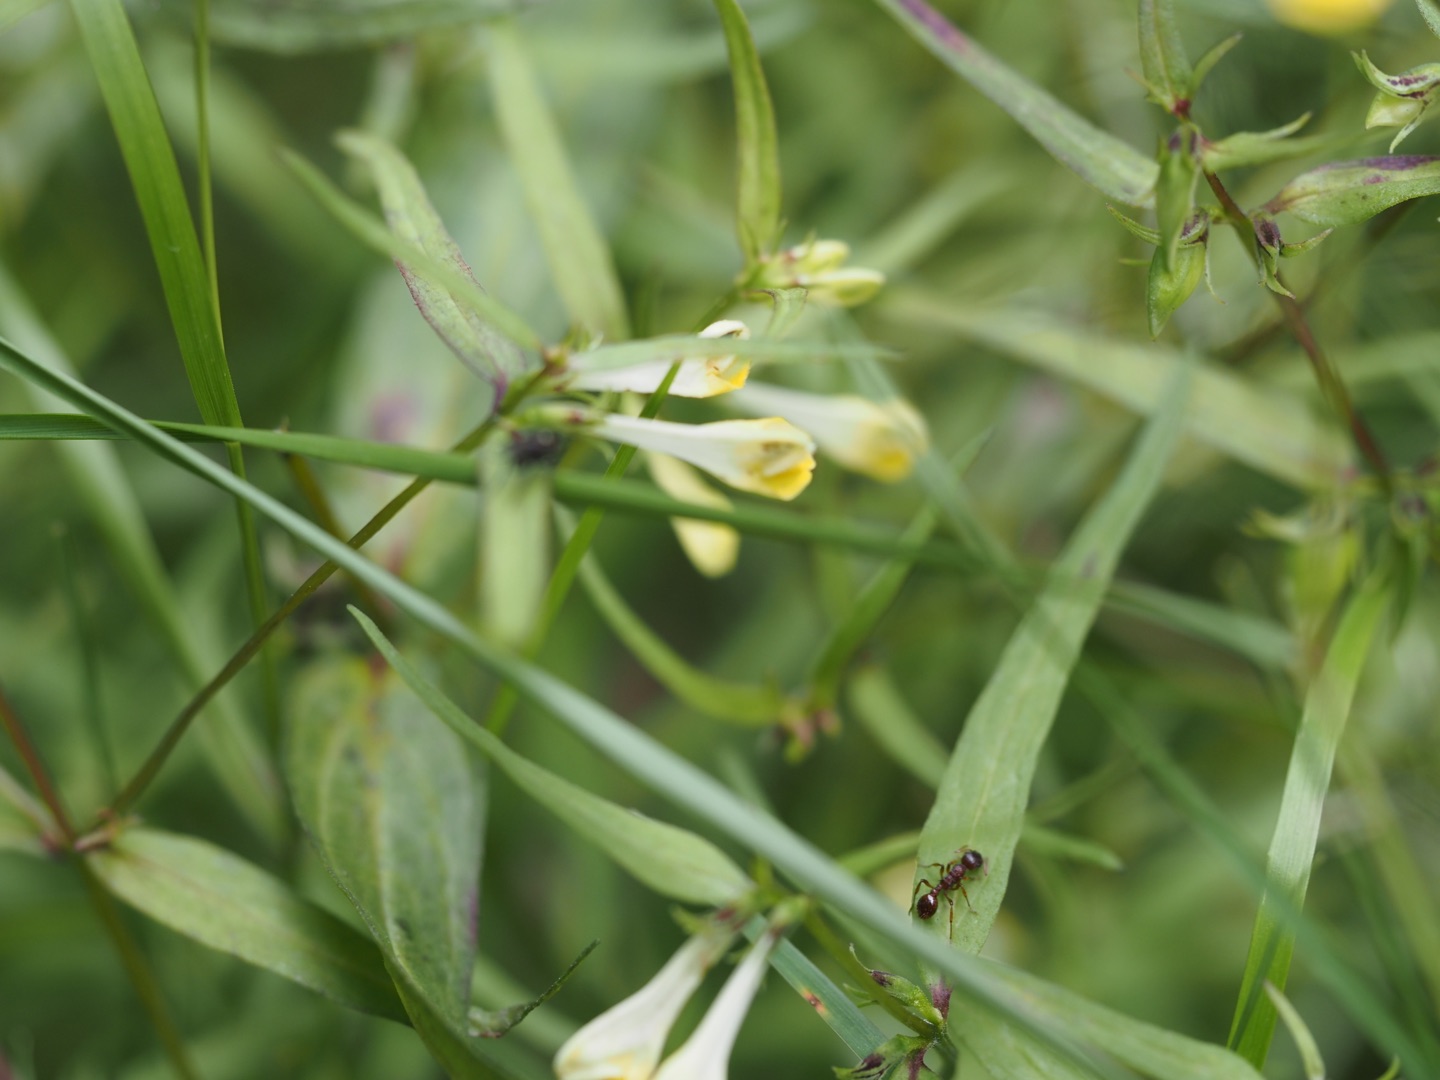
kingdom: Plantae
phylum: Tracheophyta
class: Magnoliopsida
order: Lamiales
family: Orobanchaceae
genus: Melampyrum
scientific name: Melampyrum pratense
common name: Almindelig kohvede
